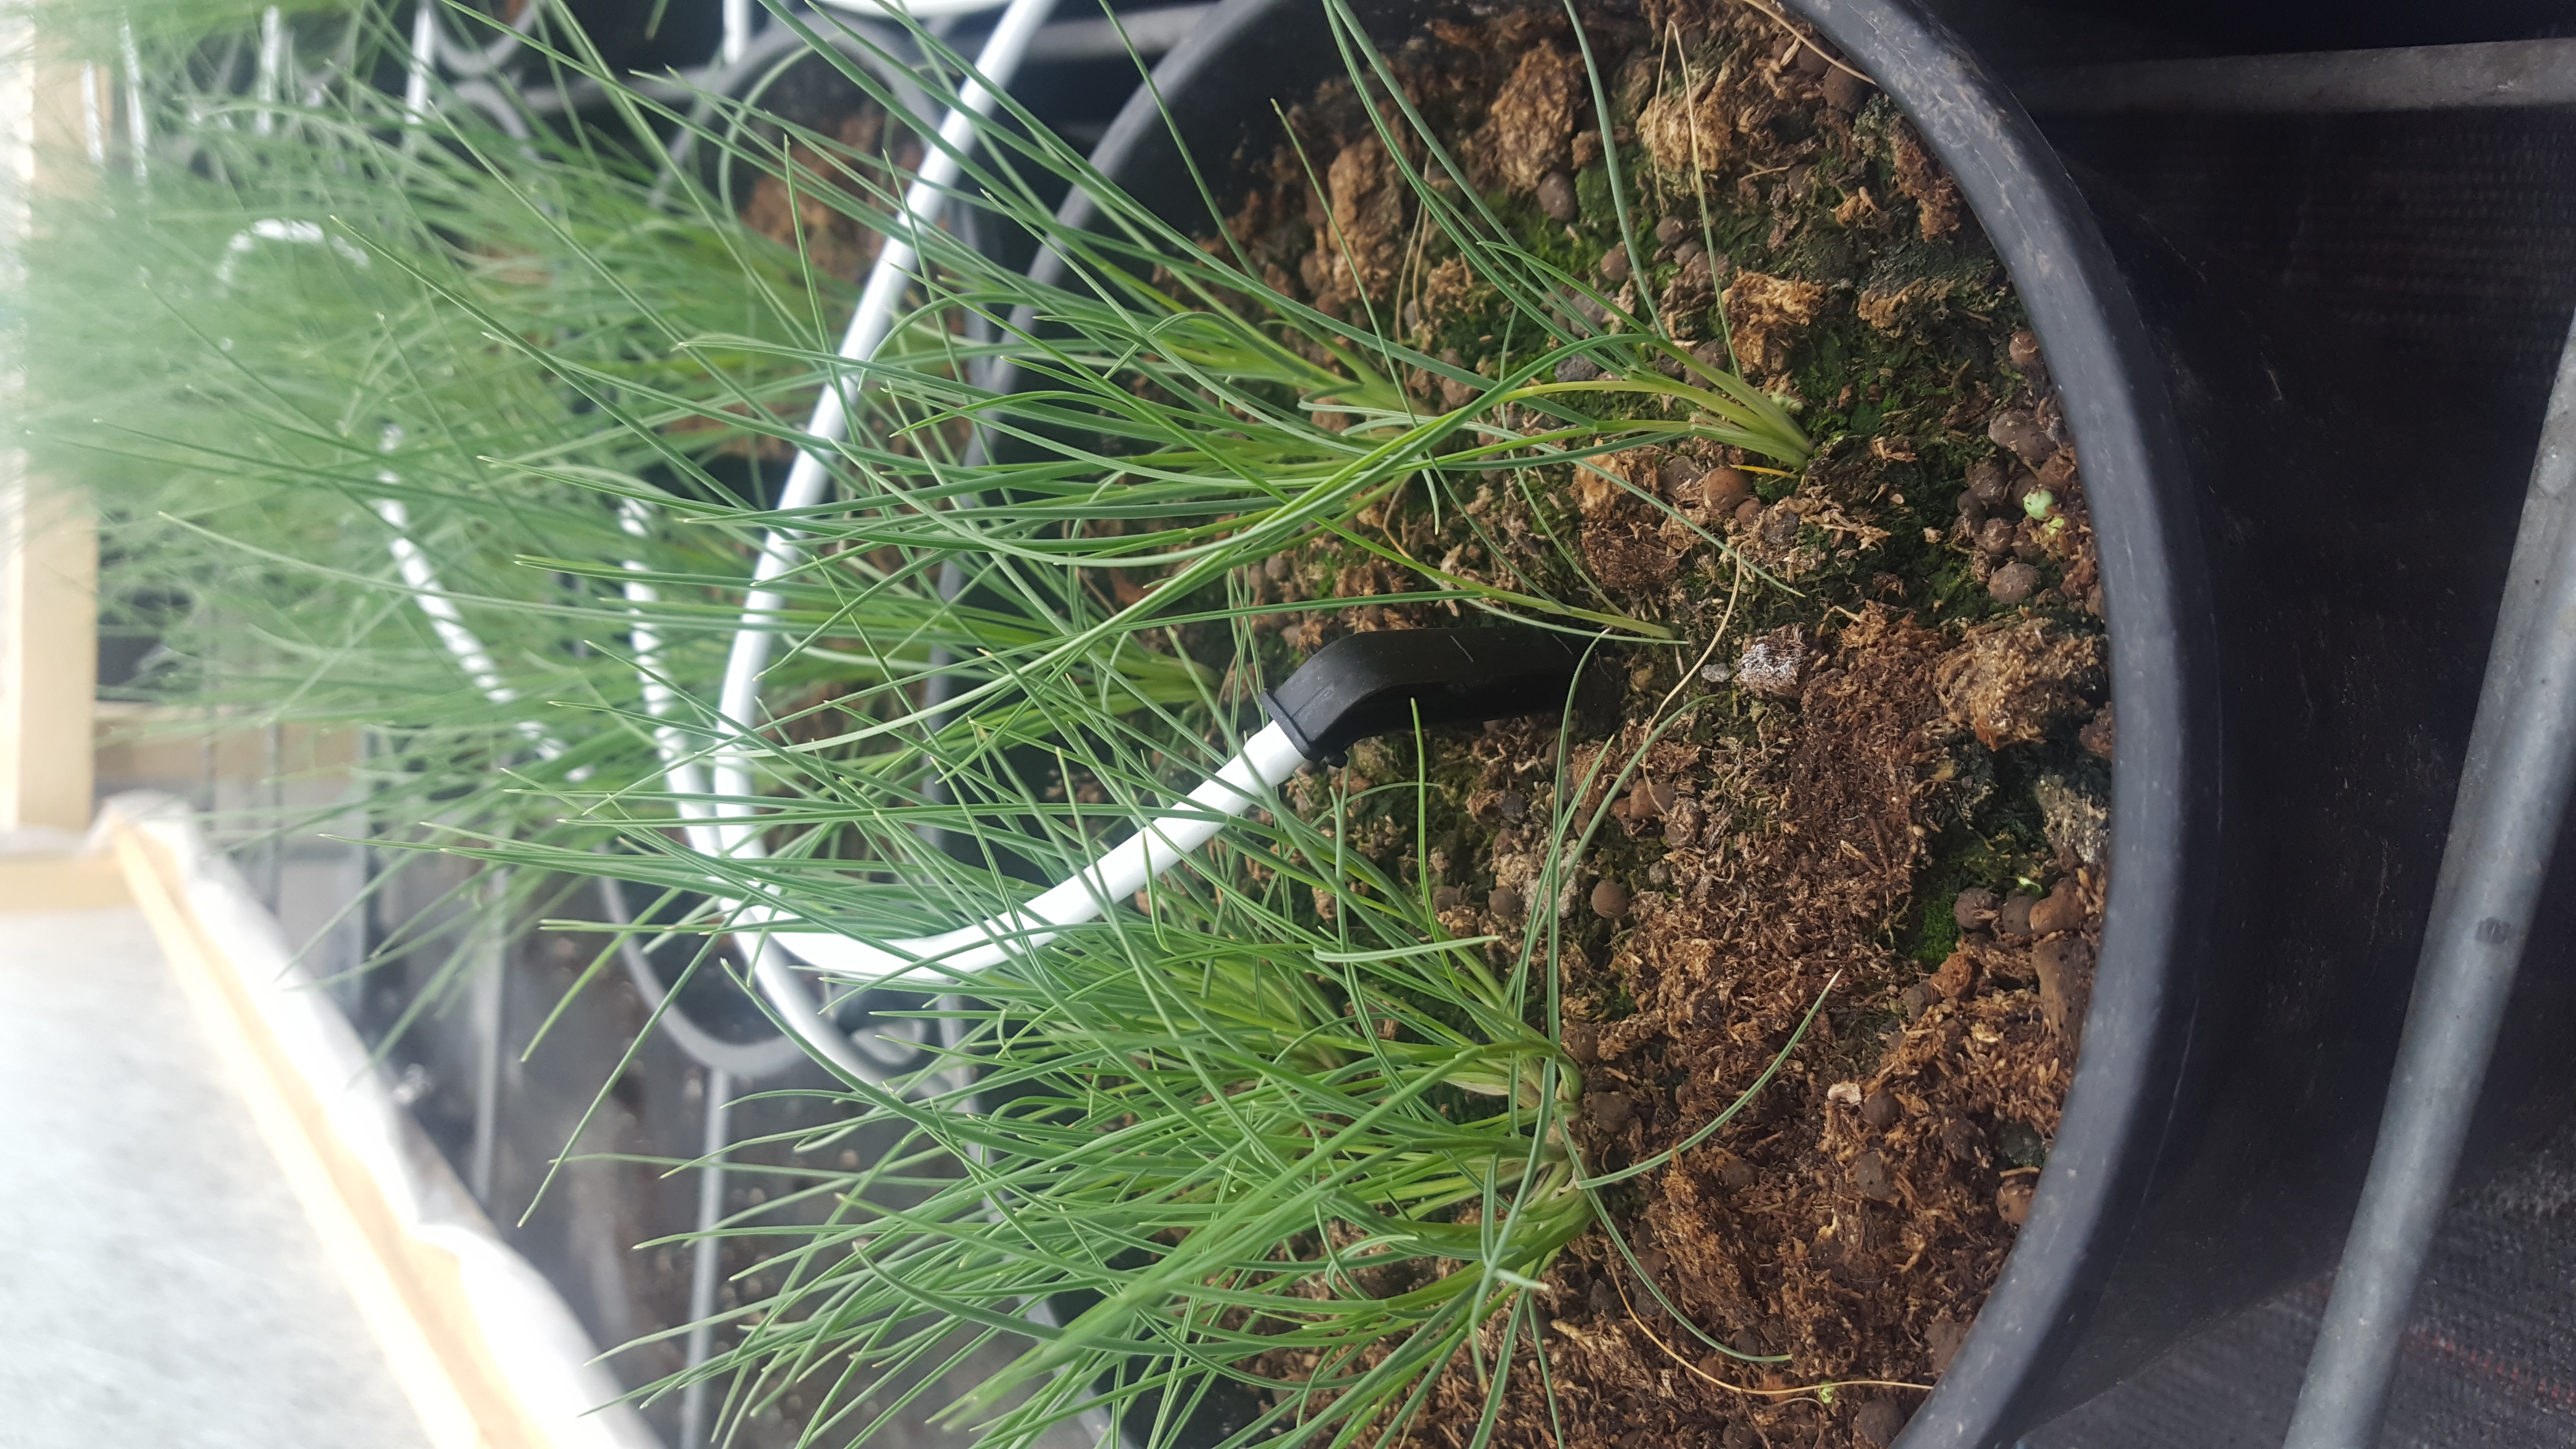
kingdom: Plantae
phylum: Tracheophyta
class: Liliopsida
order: Poales
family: Poaceae
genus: Hordeum
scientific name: Hordeum patagonicum
